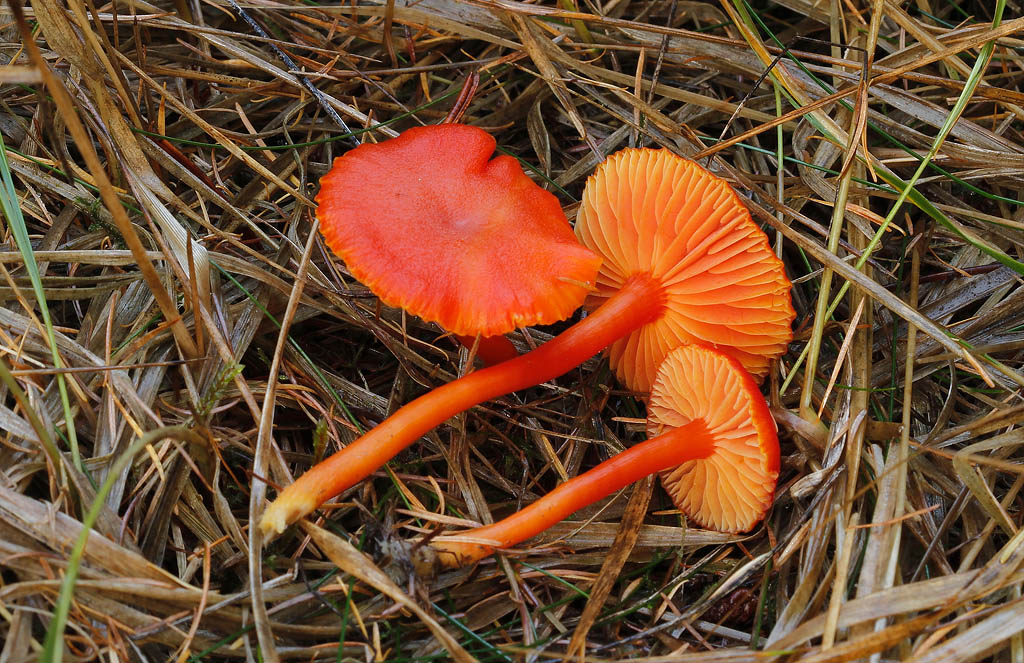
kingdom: Fungi
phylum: Basidiomycota
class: Agaricomycetes
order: Agaricales
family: Hygrophoraceae
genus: Hygrocybe
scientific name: Hygrocybe miniata
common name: mønje-vokshat
